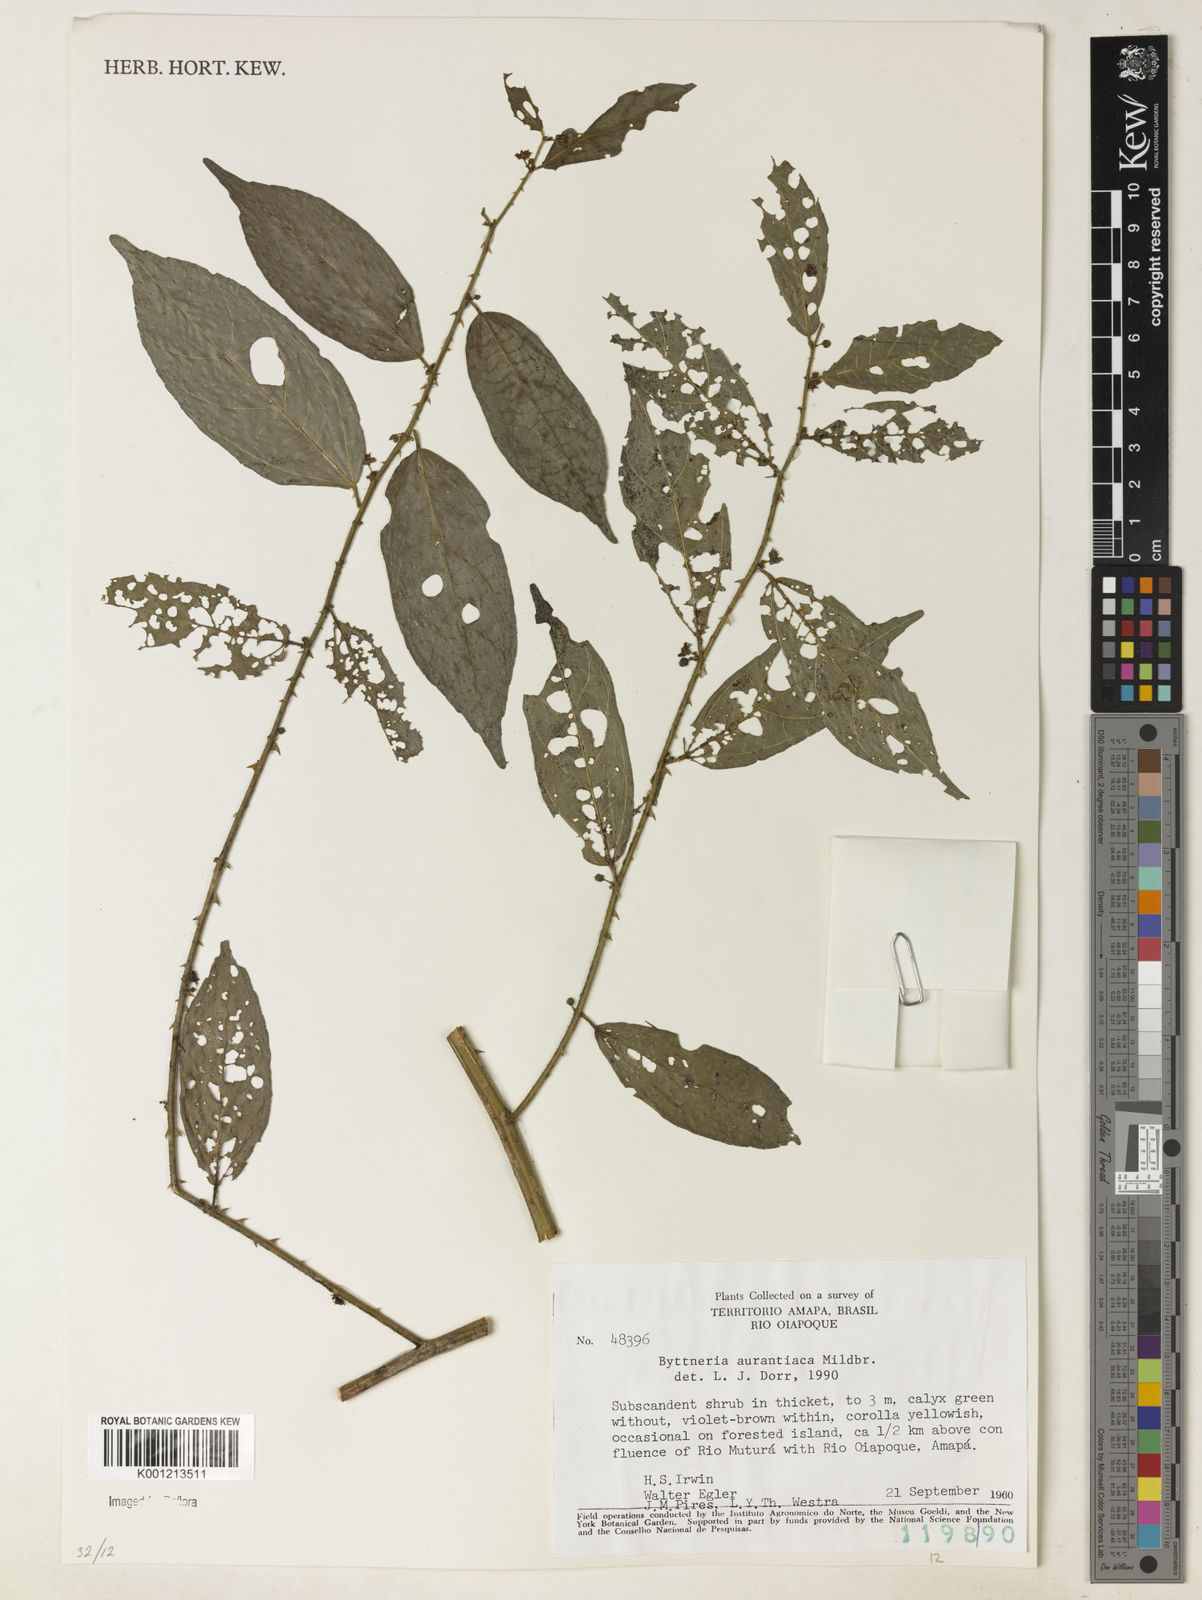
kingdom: Plantae
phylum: Tracheophyta
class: Magnoliopsida
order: Malvales
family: Malvaceae
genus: Byttneria
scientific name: Byttneria aurantiaca
